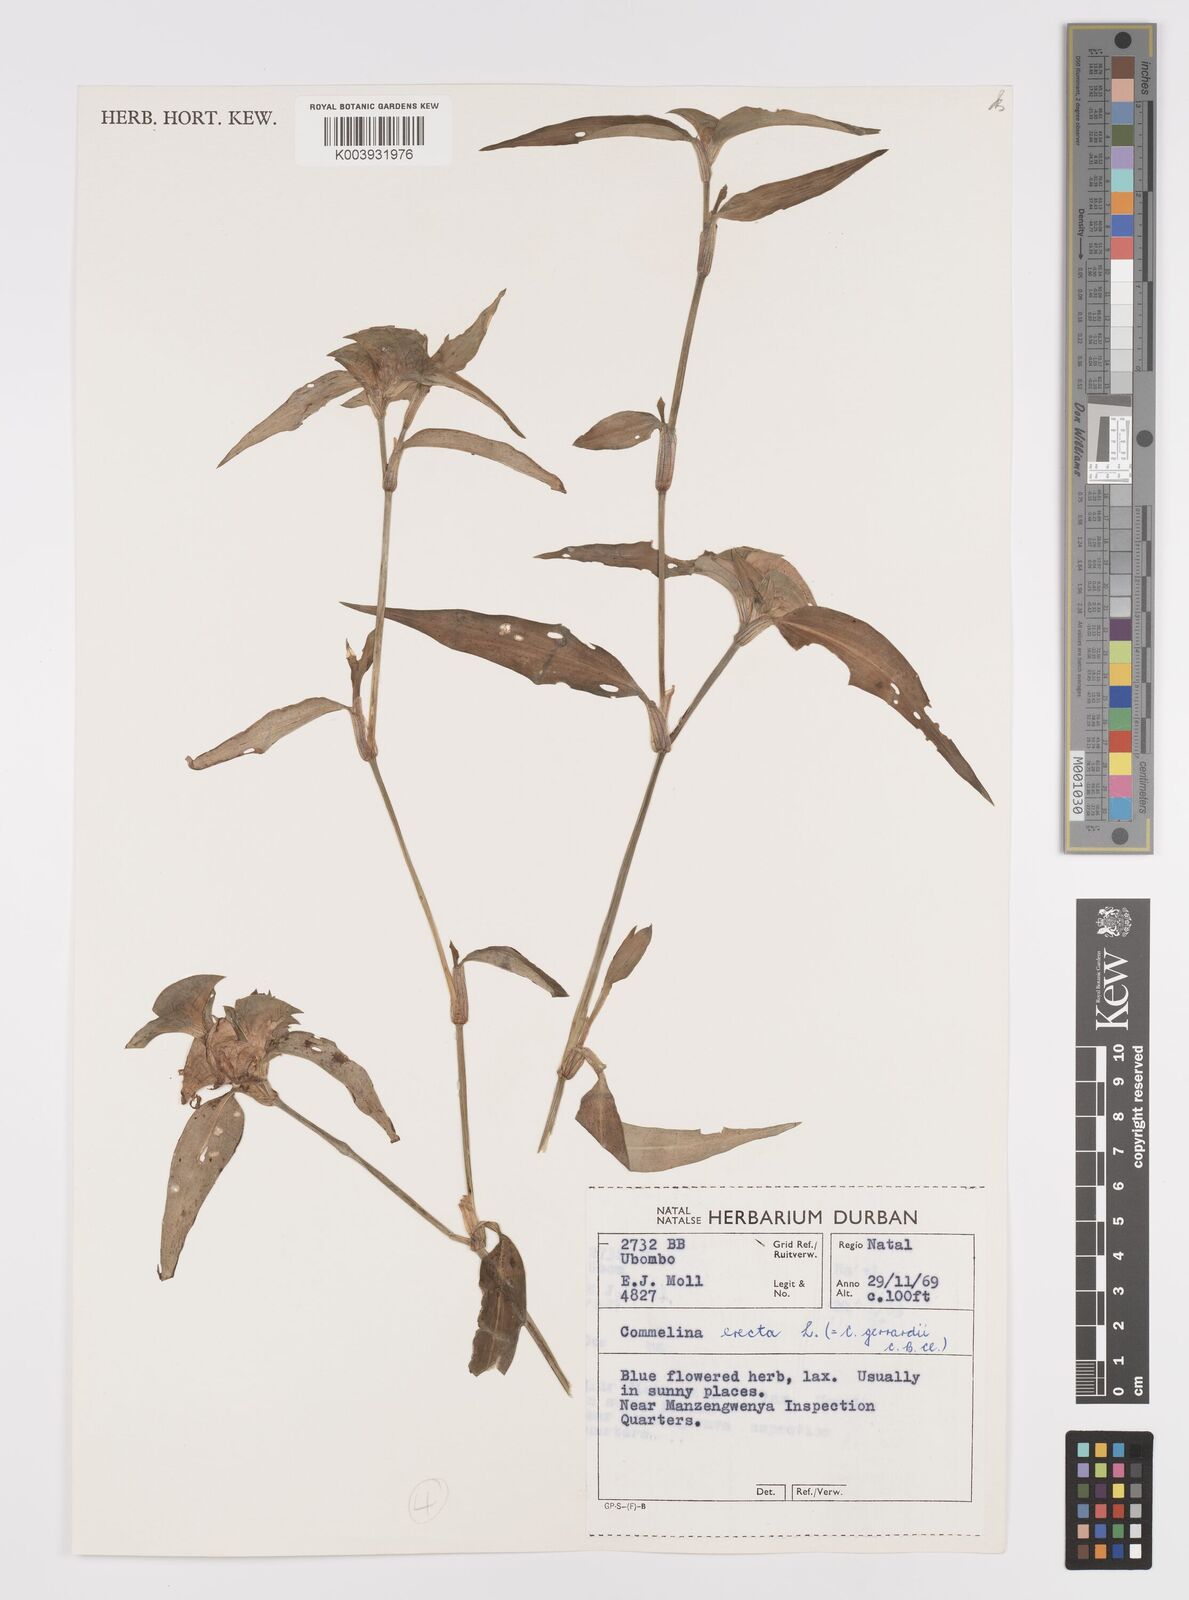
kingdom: Plantae
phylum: Tracheophyta
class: Liliopsida
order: Commelinales
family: Commelinaceae
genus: Commelina
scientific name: Commelina erecta
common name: Blousel blommetjie
